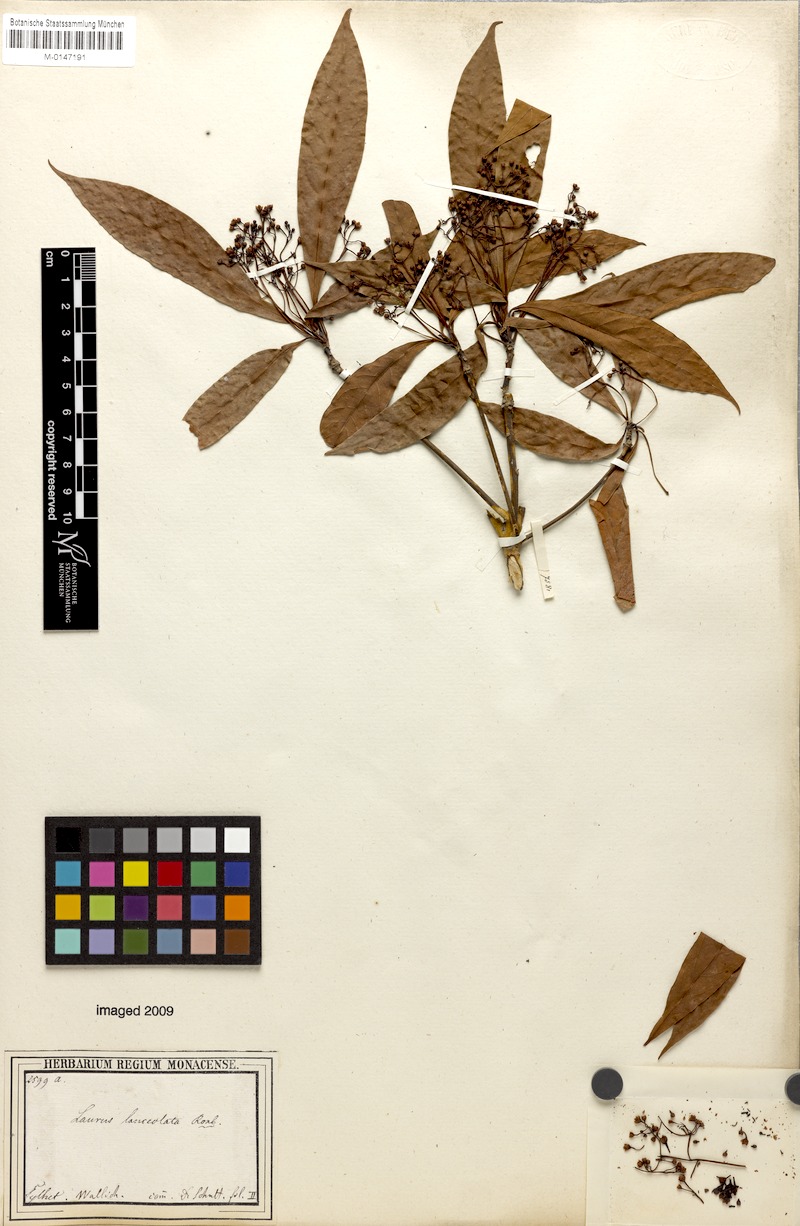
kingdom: Plantae
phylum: Tracheophyta
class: Magnoliopsida
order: Laurales
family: Lauraceae
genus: Phoebe
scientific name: Phoebe lanceolata
